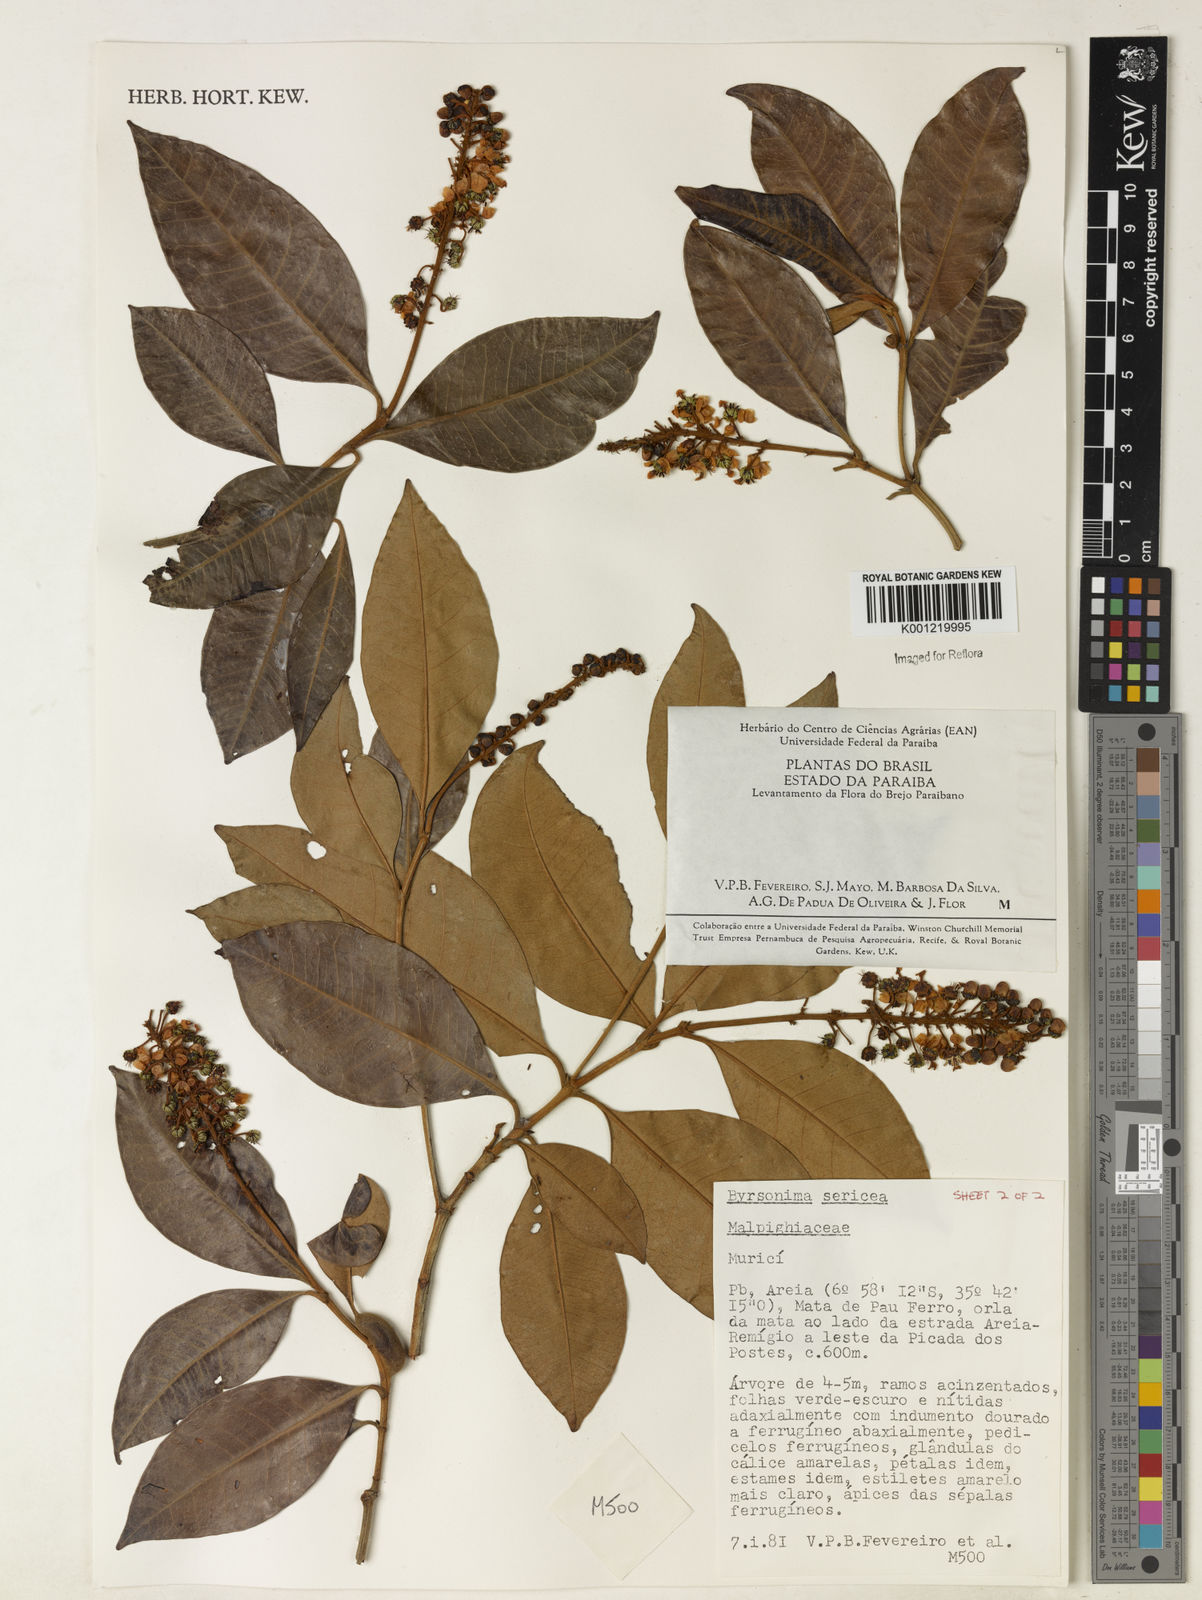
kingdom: Plantae
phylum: Tracheophyta
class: Magnoliopsida
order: Malpighiales
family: Malpighiaceae
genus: Byrsonima
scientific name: Byrsonima sericea
